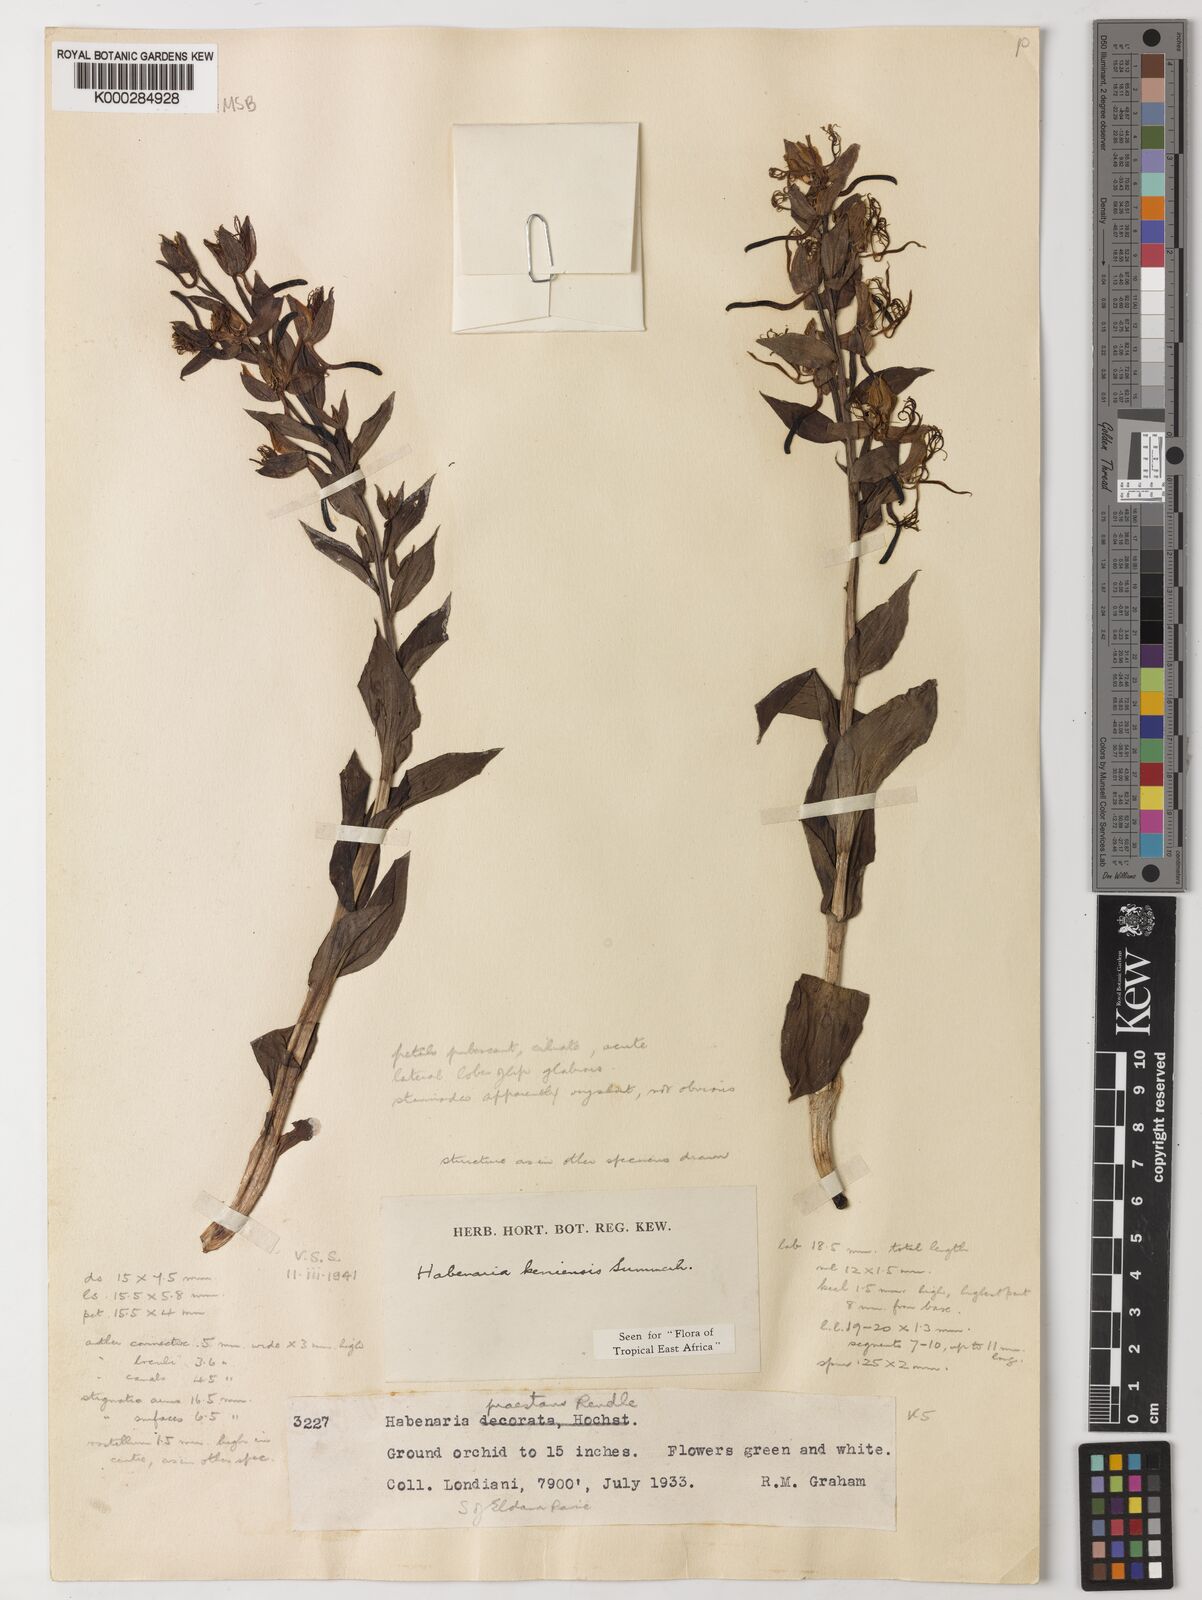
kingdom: Plantae
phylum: Tracheophyta
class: Liliopsida
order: Asparagales
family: Orchidaceae
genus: Habenaria
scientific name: Habenaria keniensis
